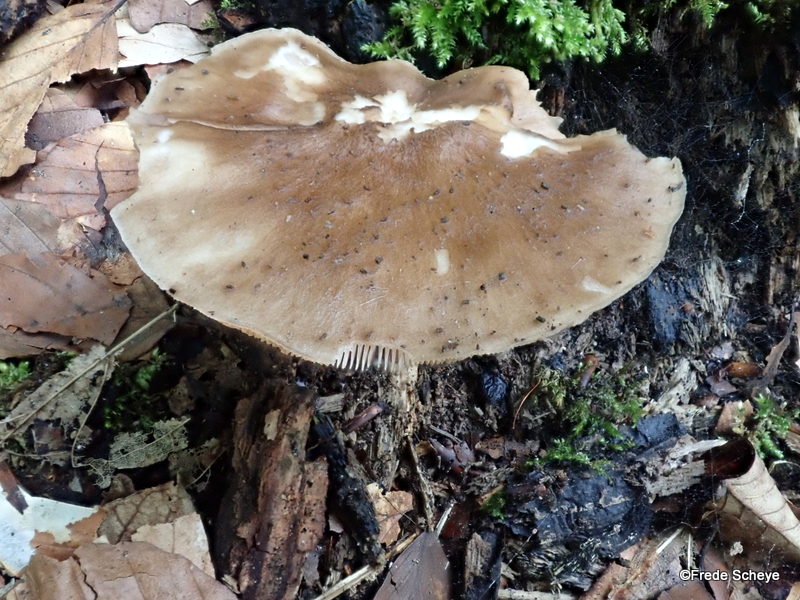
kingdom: Fungi
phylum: Basidiomycota
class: Agaricomycetes
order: Agaricales
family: Pluteaceae
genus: Pluteus
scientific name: Pluteus cervinus
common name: sodfarvet skærmhat
